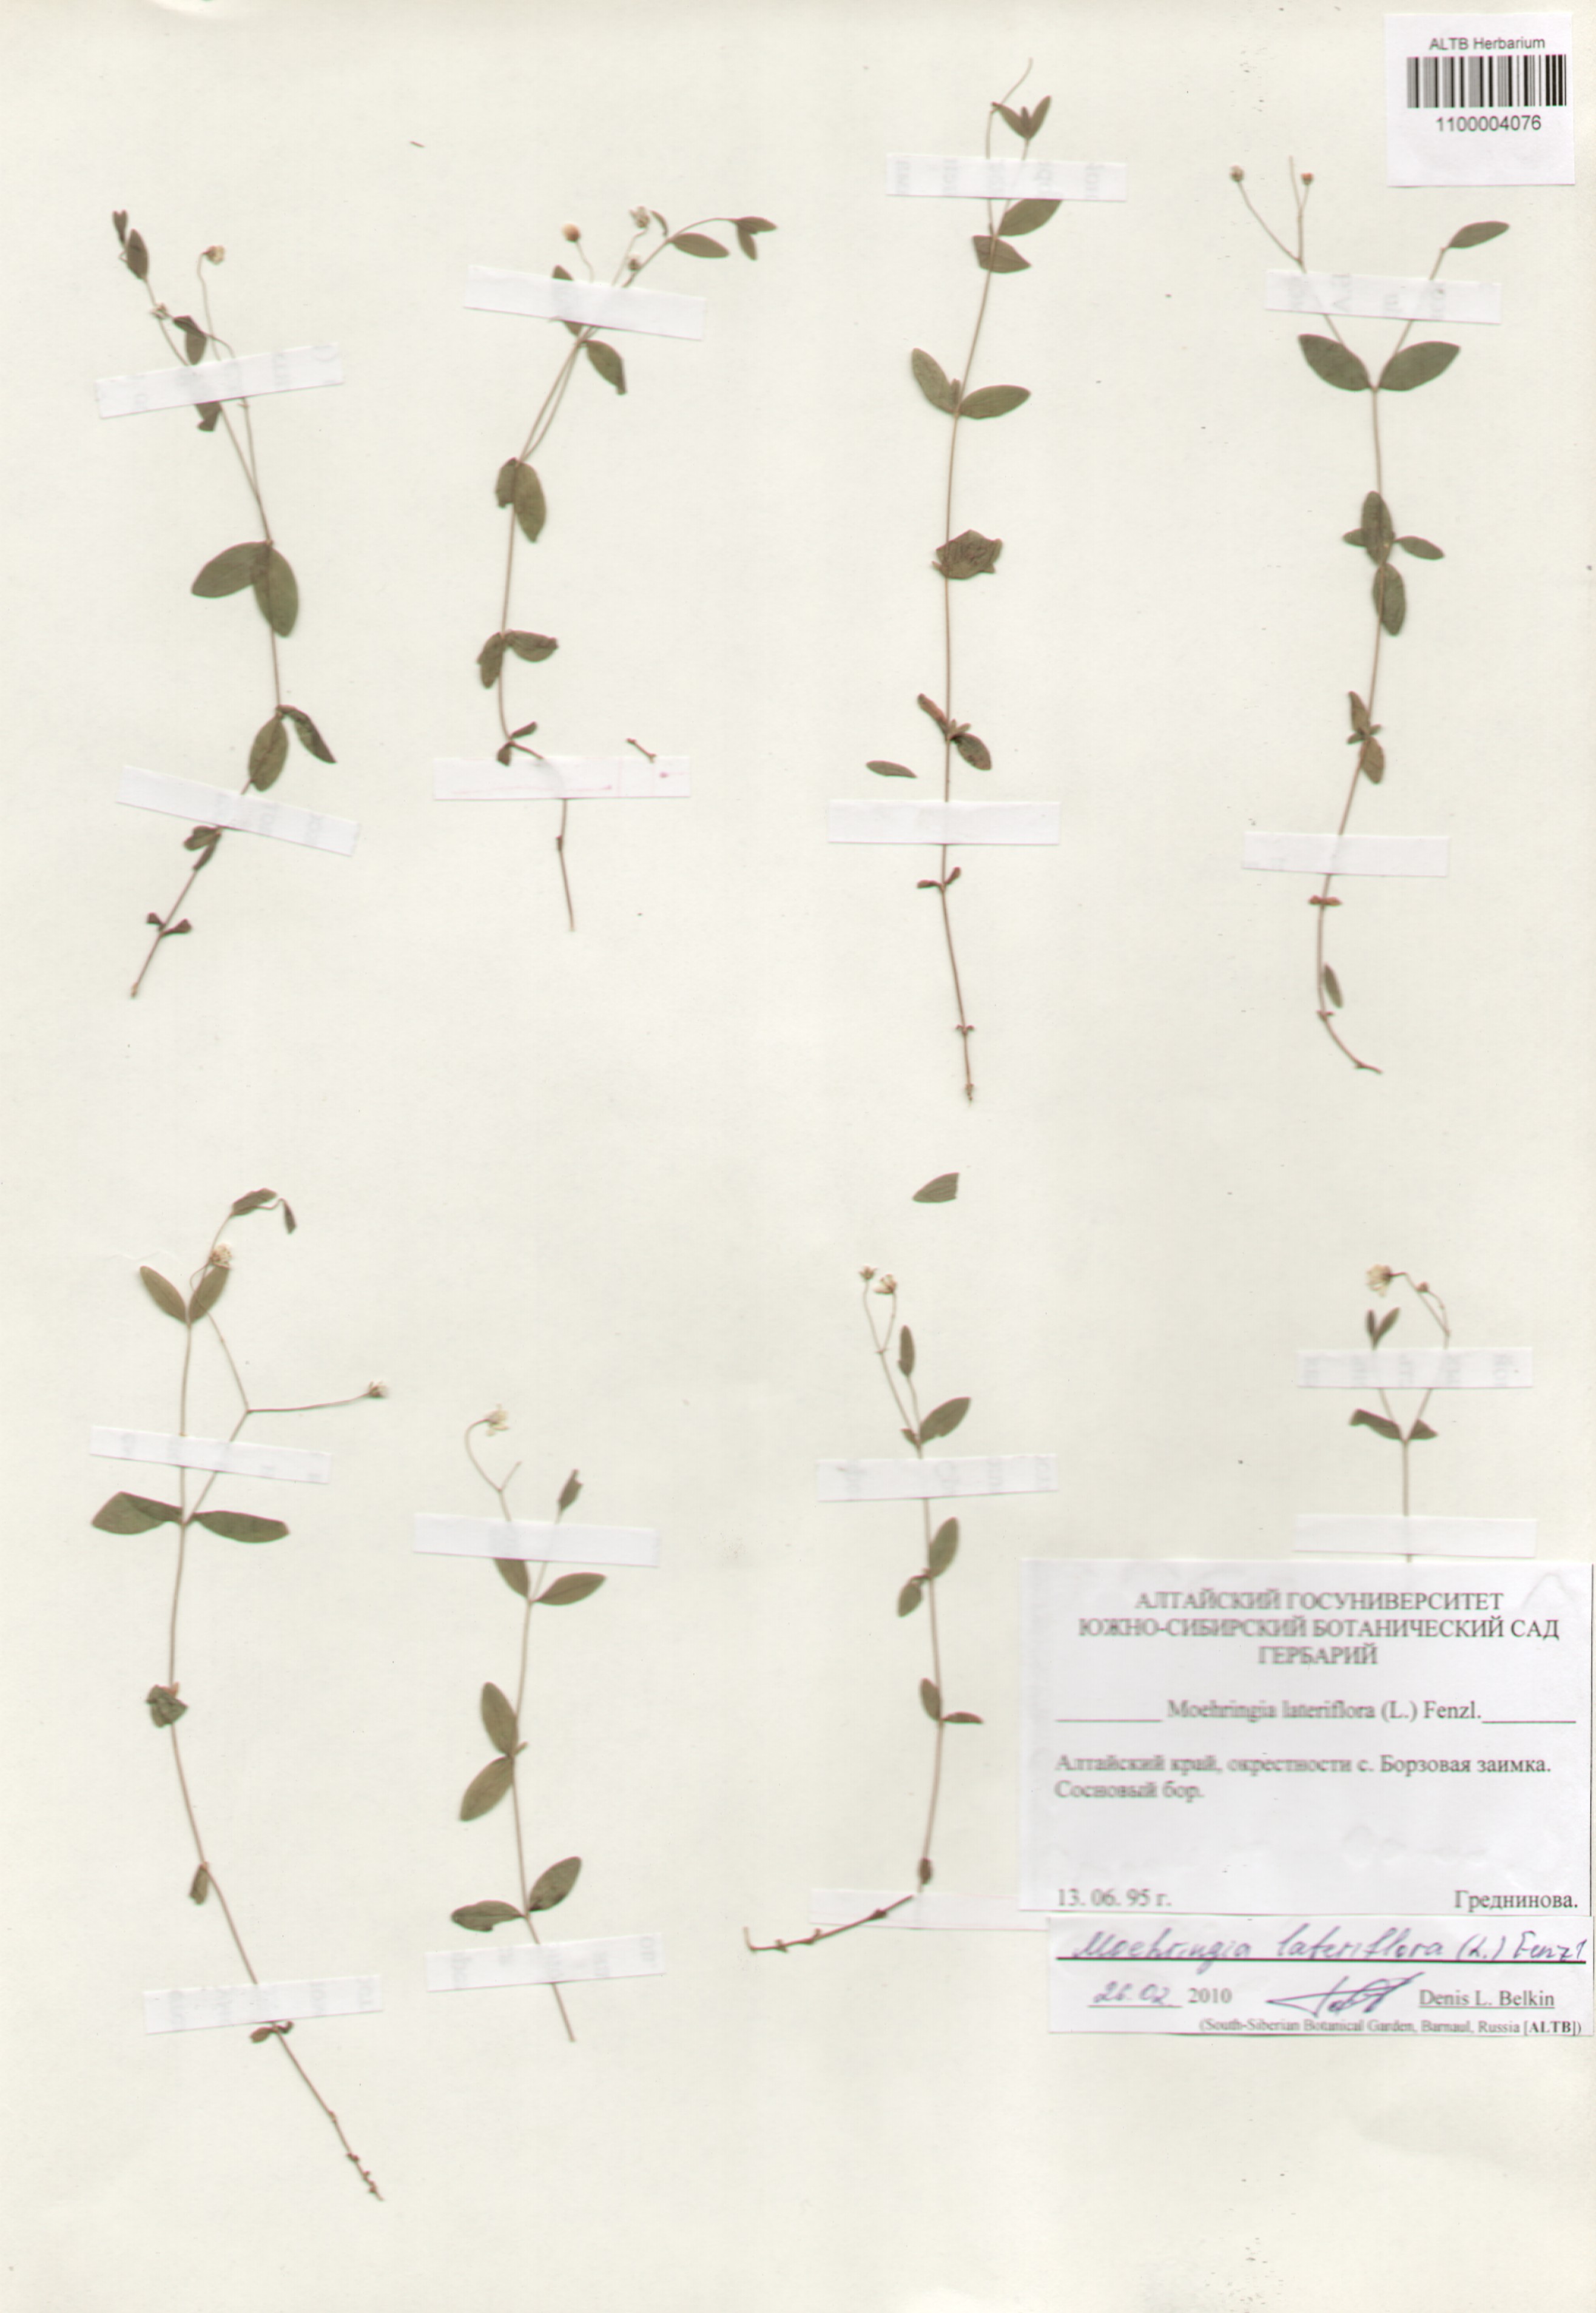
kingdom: Plantae
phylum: Tracheophyta
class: Magnoliopsida
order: Caryophyllales
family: Caryophyllaceae
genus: Moehringia
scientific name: Moehringia lateriflora
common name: Blunt-leaved sandwort
